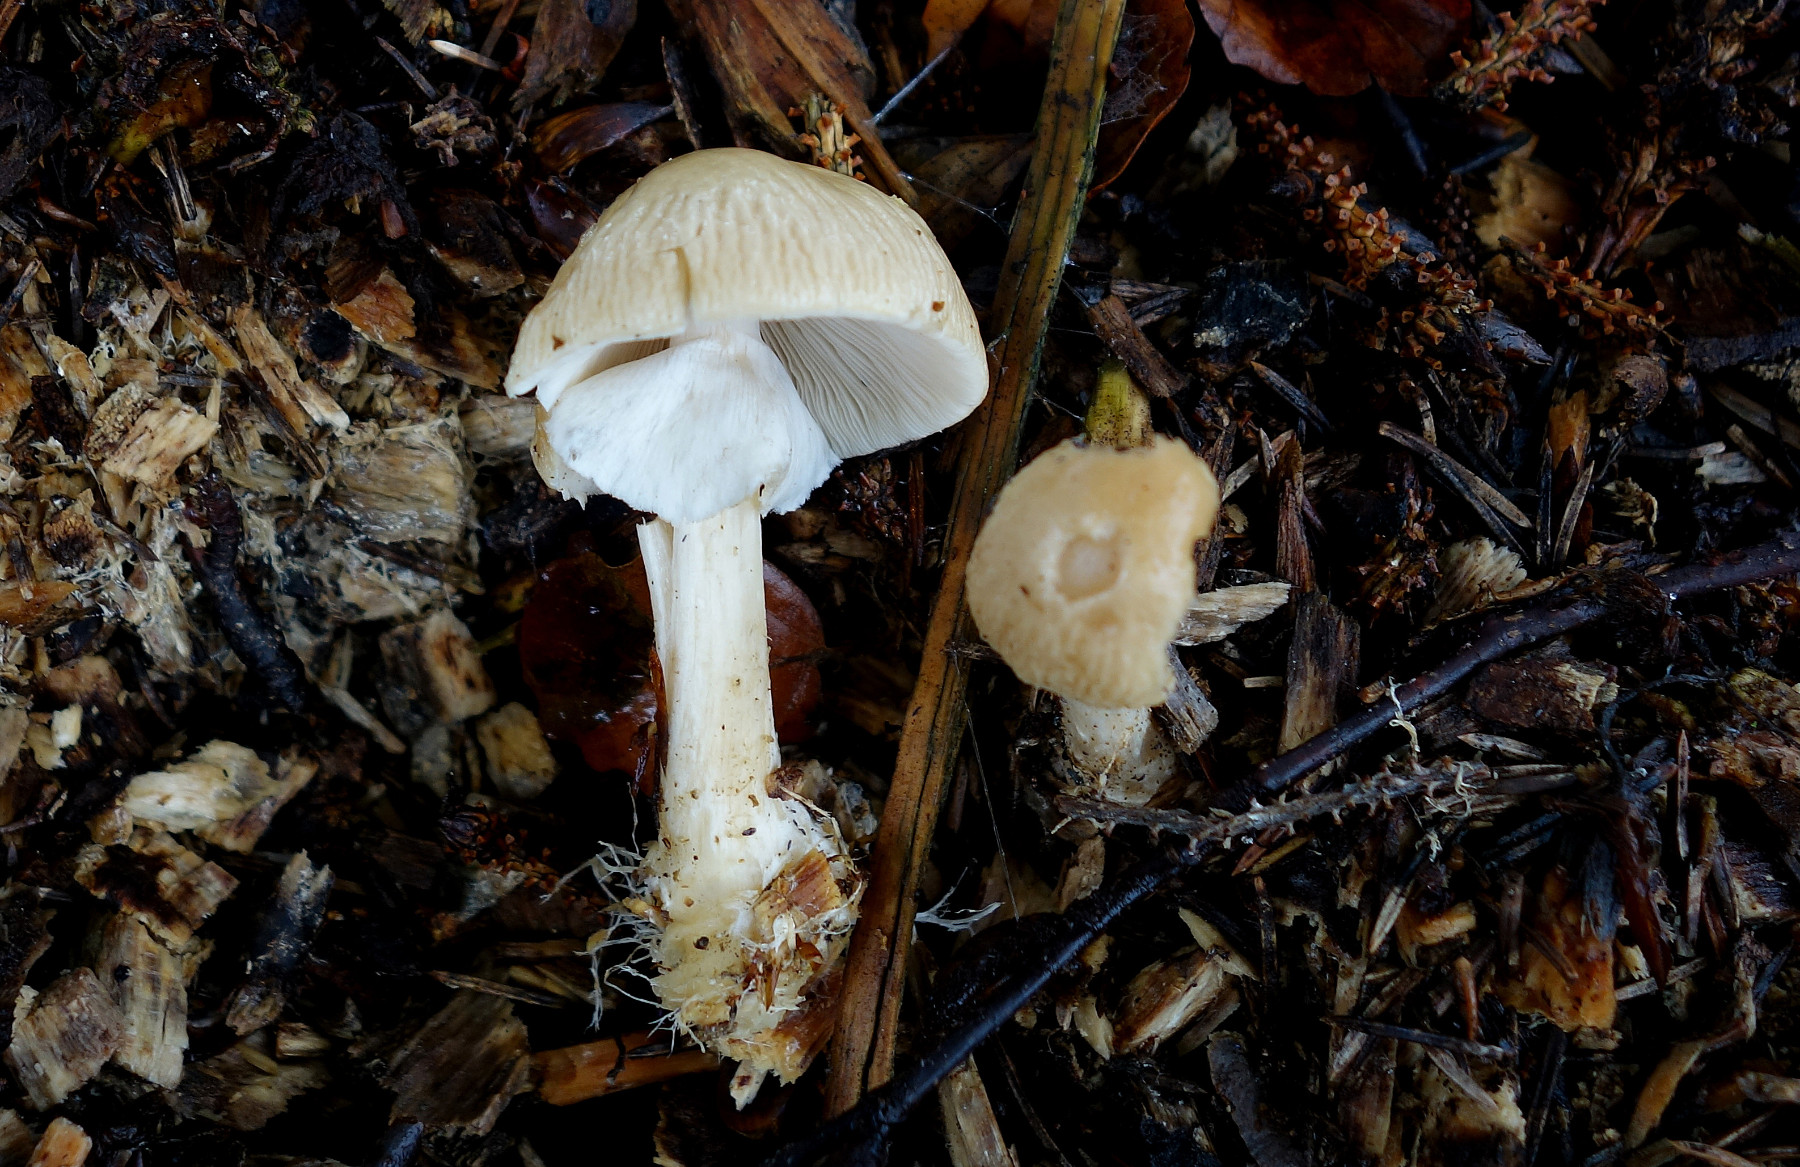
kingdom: Fungi
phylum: Basidiomycota
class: Agaricomycetes
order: Agaricales
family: Strophariaceae
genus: Agrocybe
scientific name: Agrocybe rivulosa
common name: året agerhat
